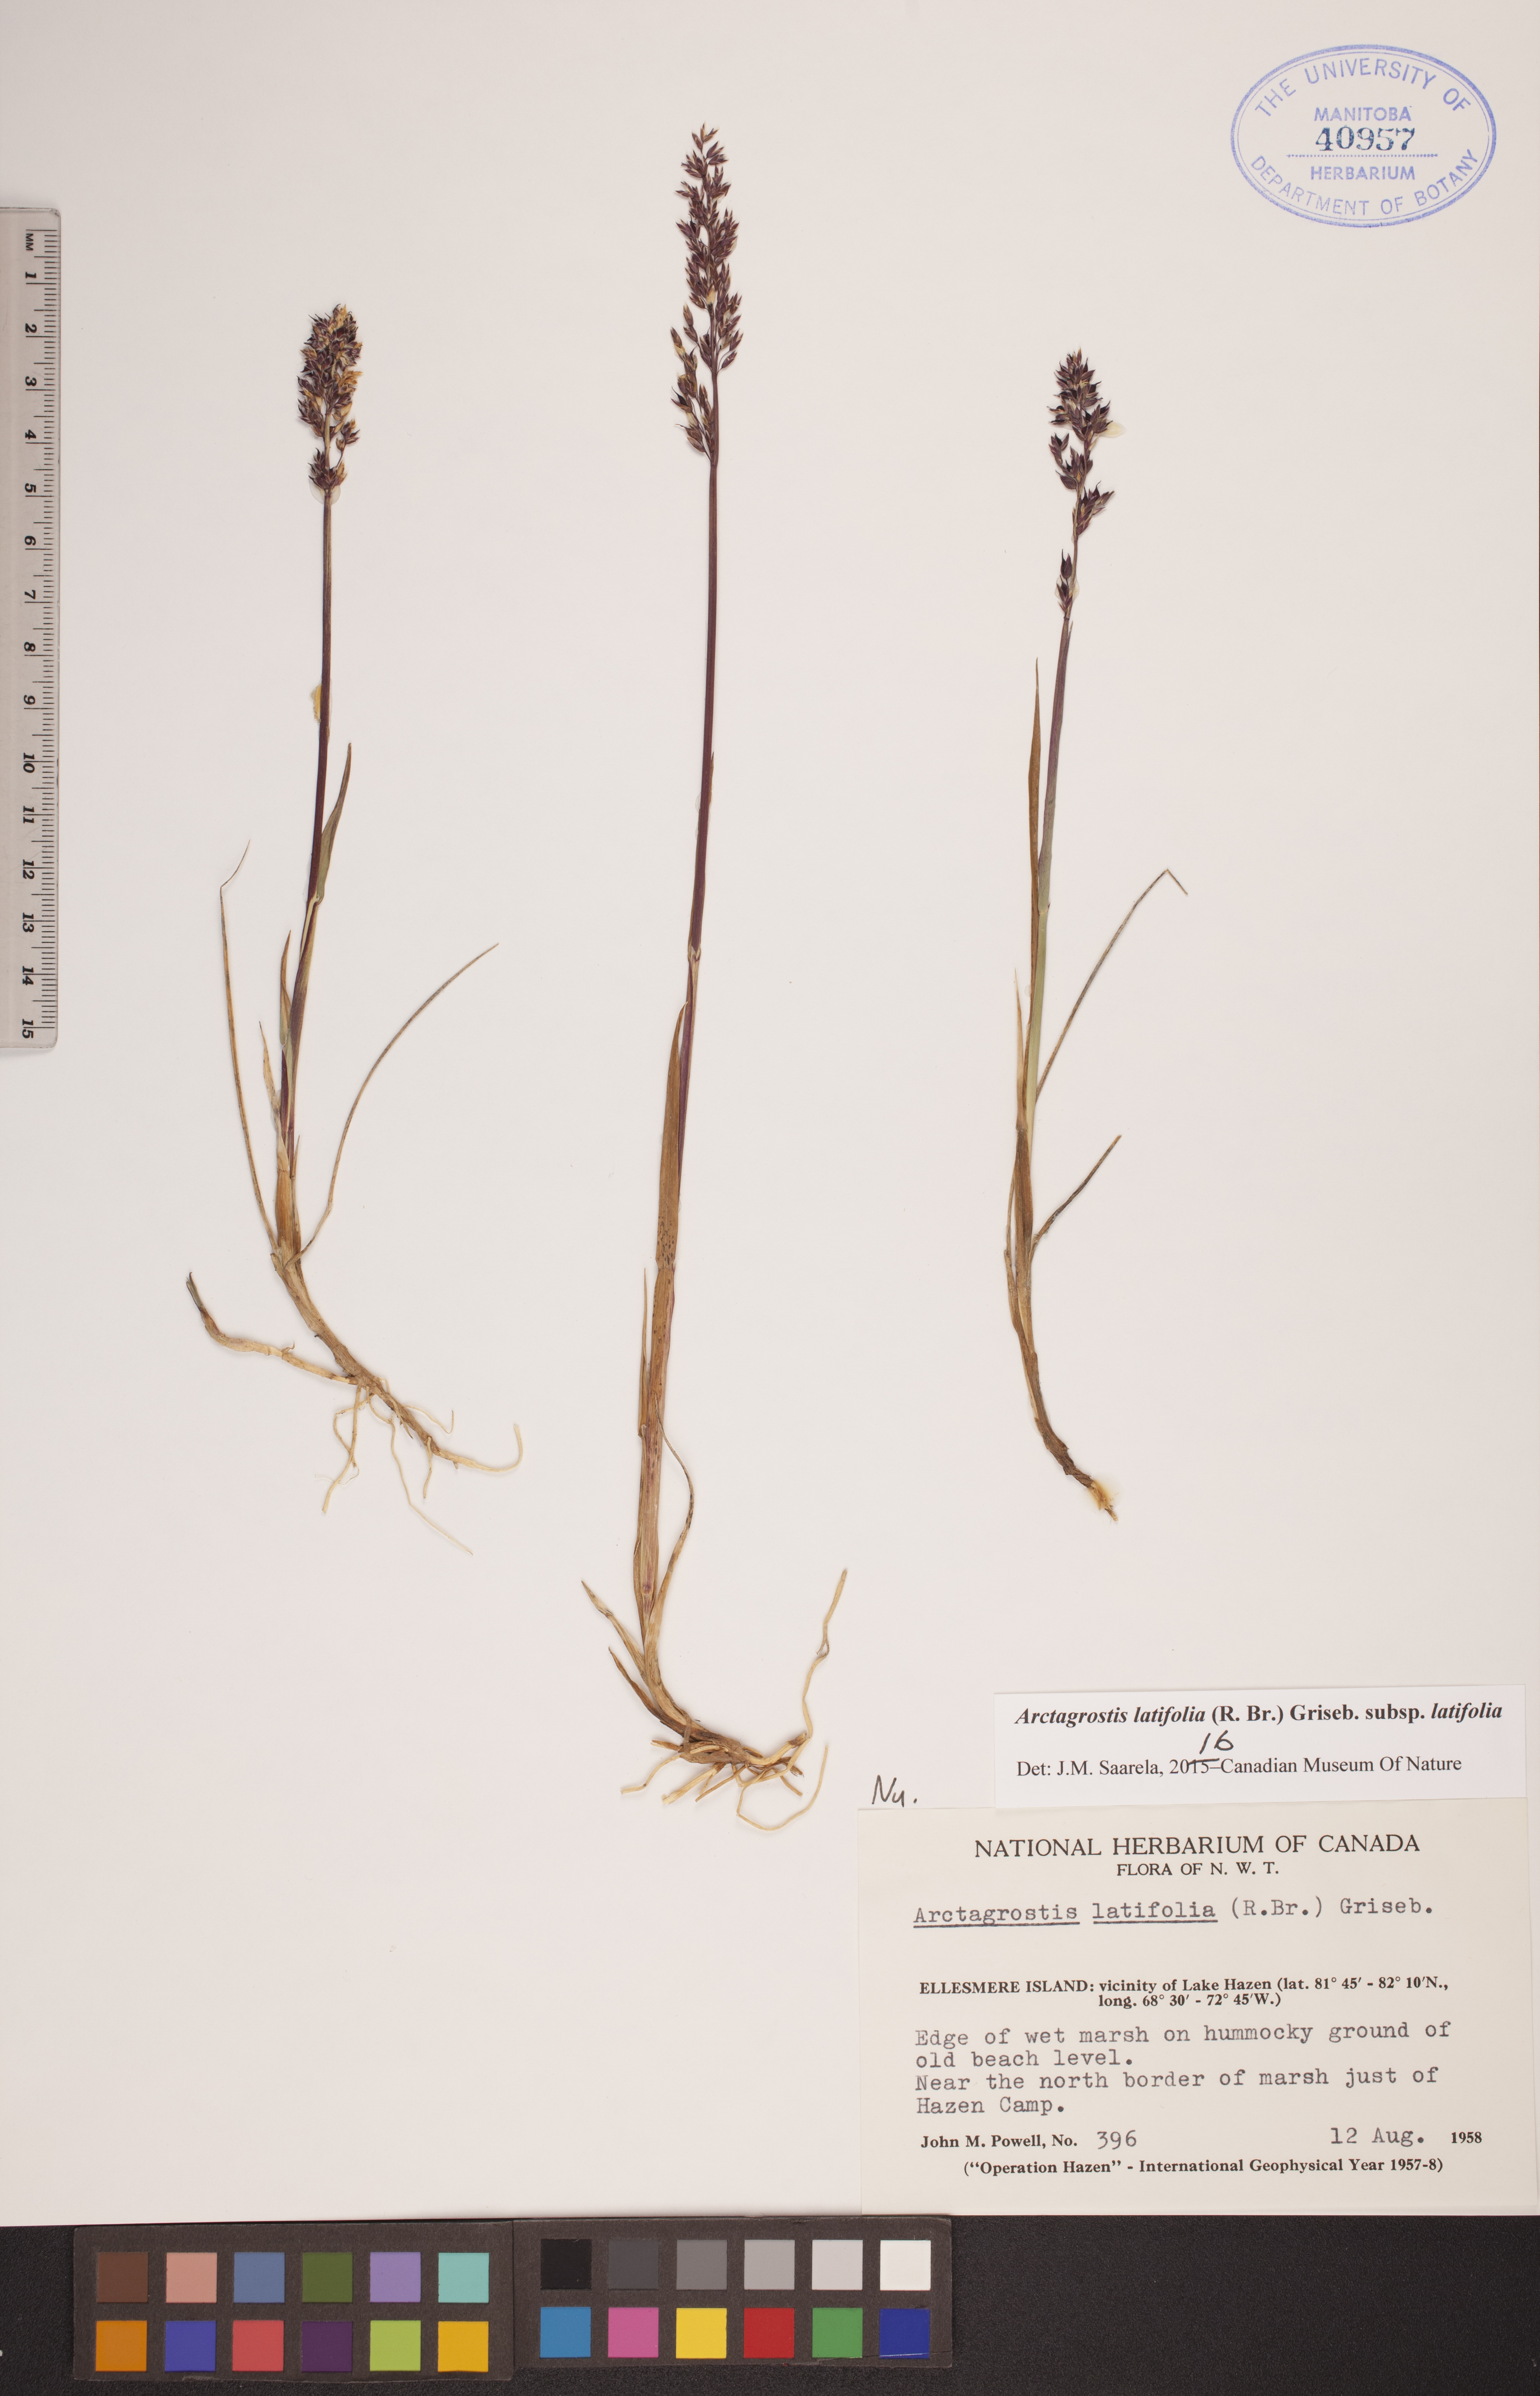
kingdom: Plantae
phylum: Tracheophyta
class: Liliopsida
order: Poales
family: Poaceae
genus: Arctagrostis
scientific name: Arctagrostis latifolia
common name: Arctic grass
